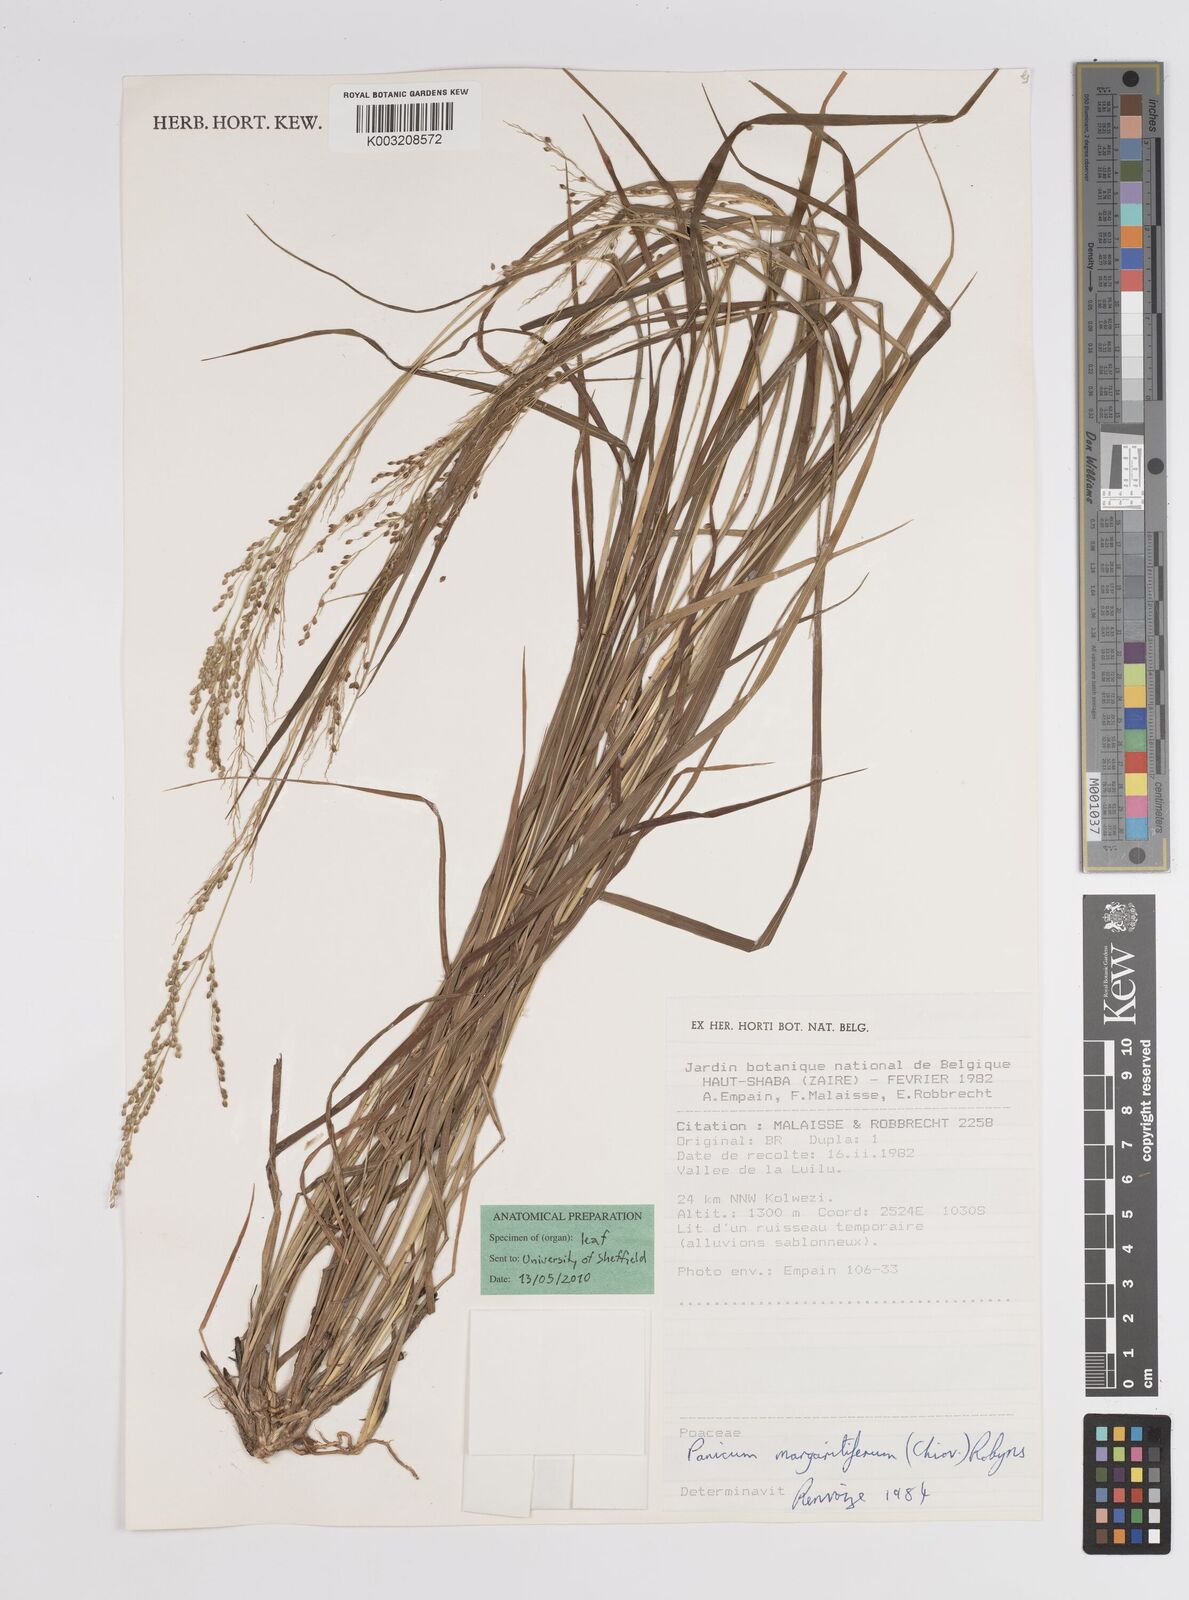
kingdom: Plantae
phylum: Tracheophyta
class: Liliopsida
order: Poales
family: Poaceae
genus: Trichanthecium
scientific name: Trichanthecium margaritiferum
